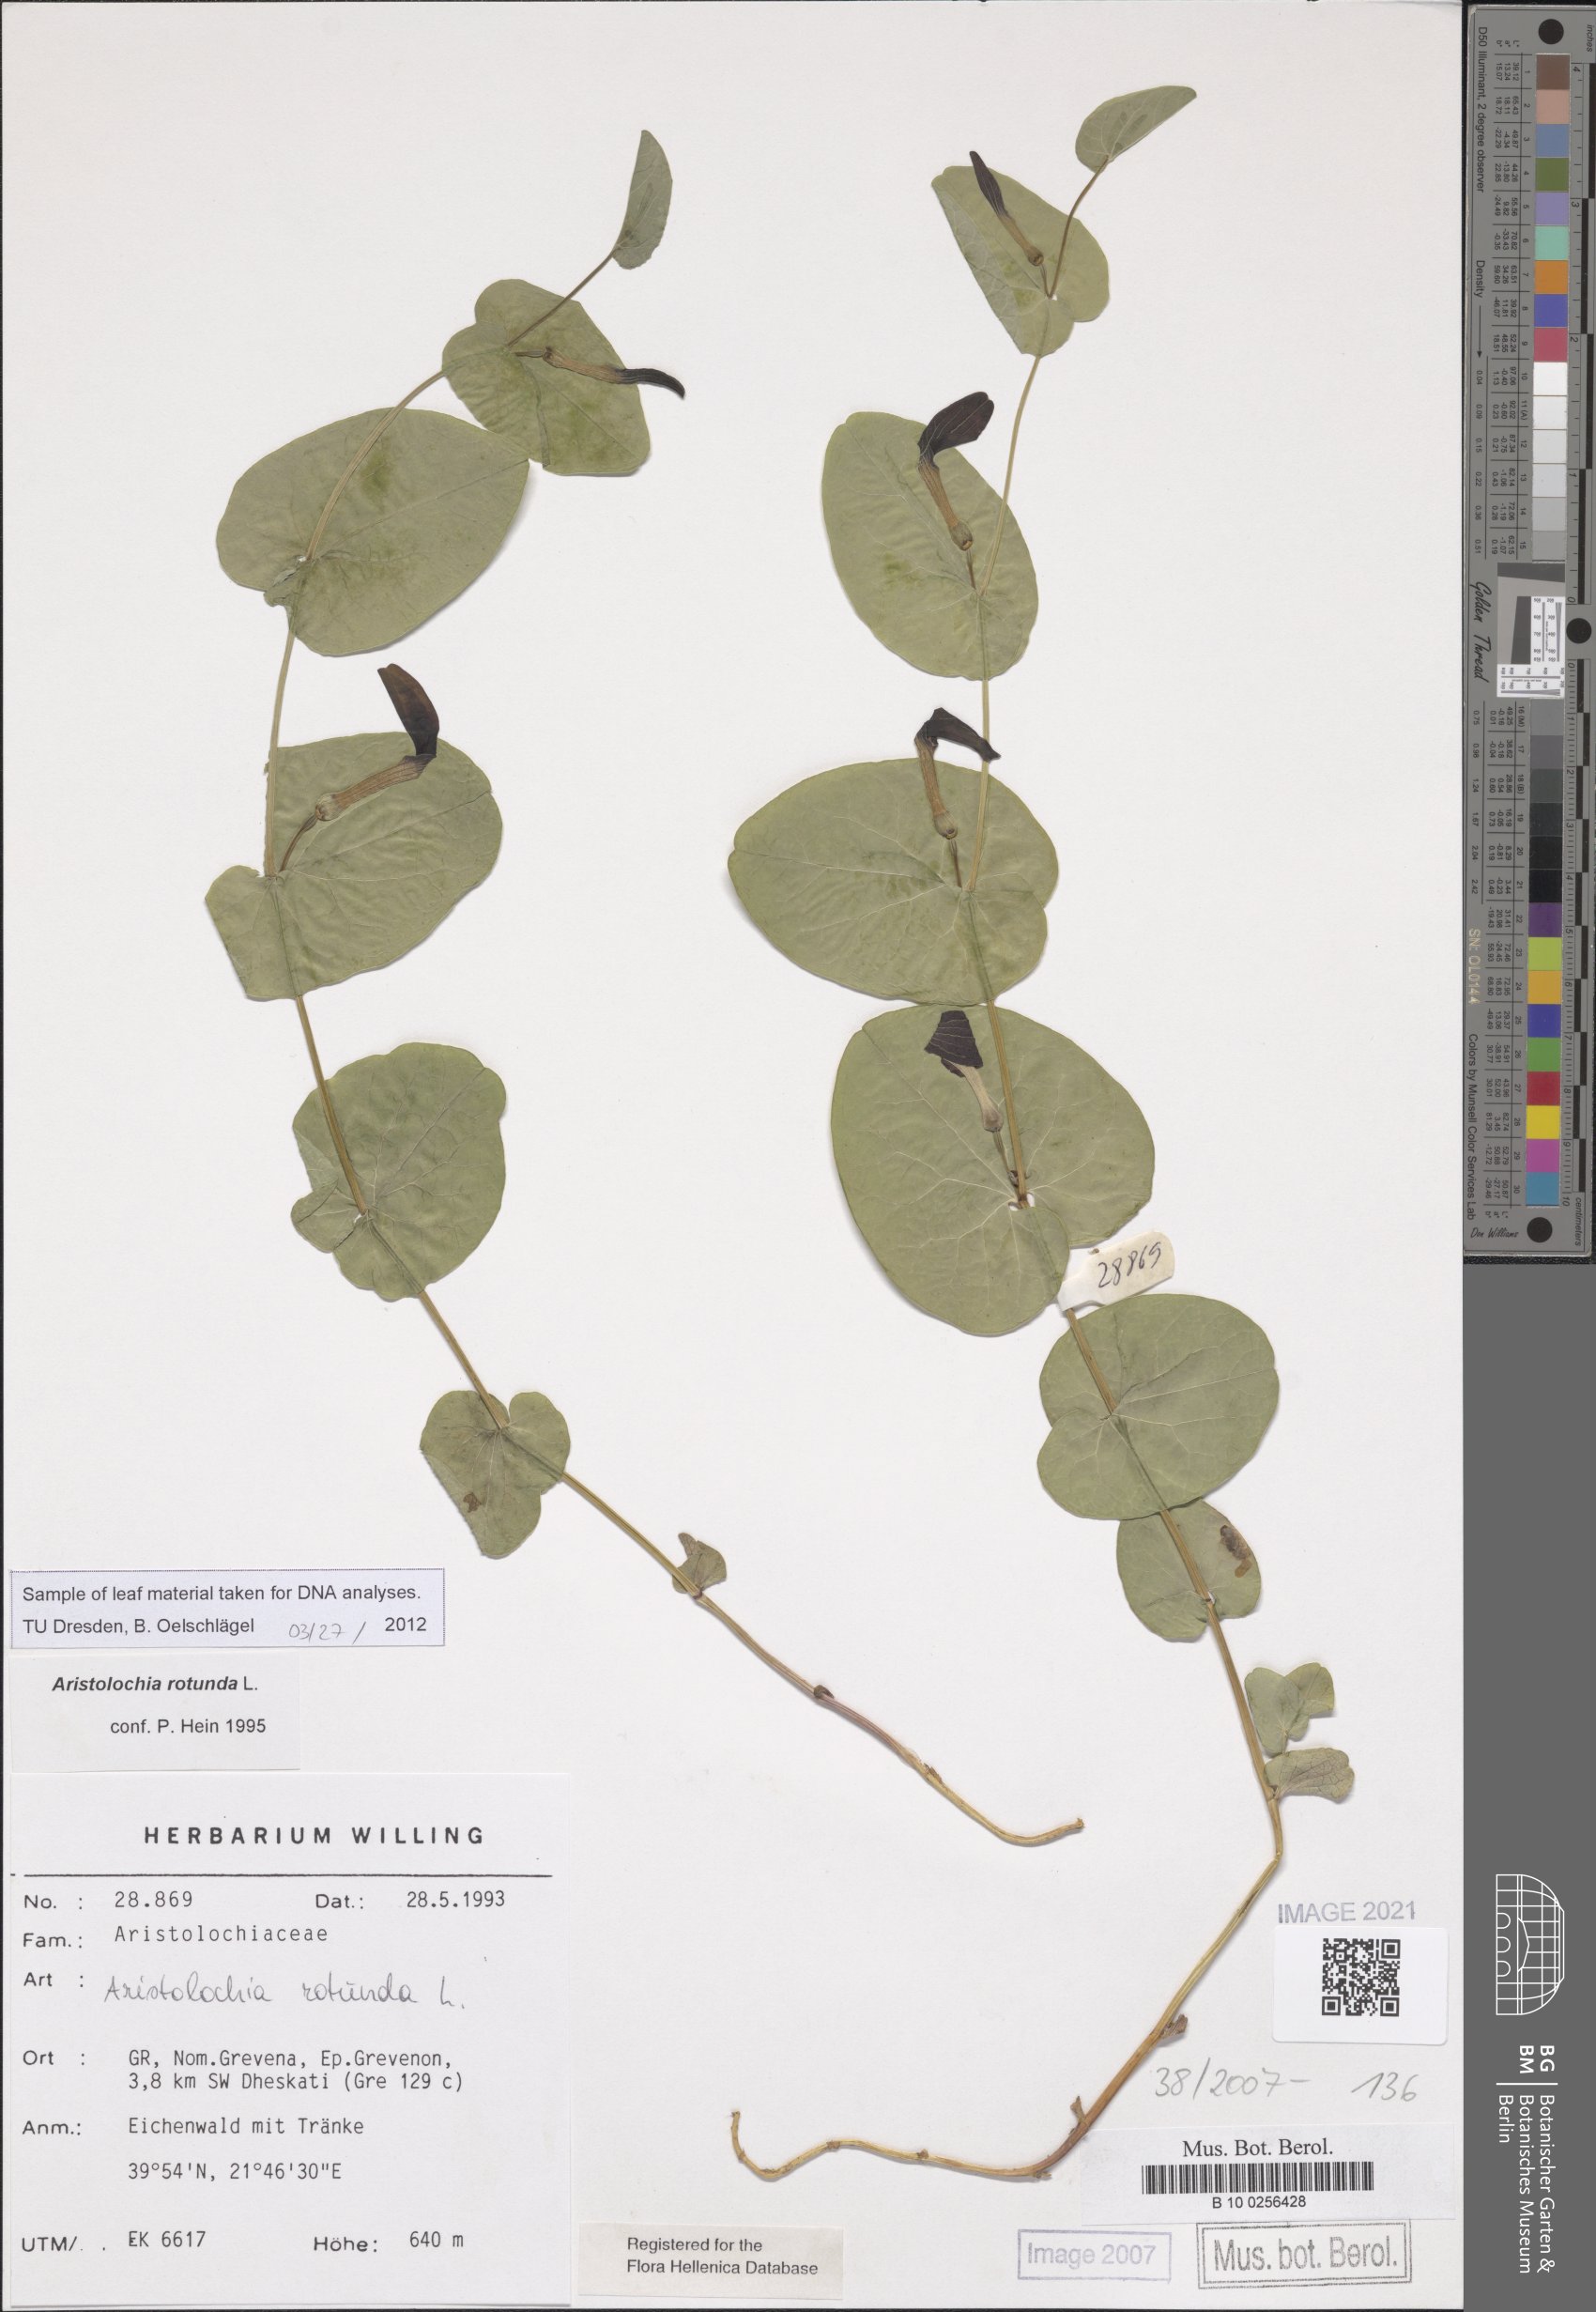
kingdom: Plantae
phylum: Tracheophyta
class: Magnoliopsida
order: Piperales
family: Aristolochiaceae
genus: Aristolochia
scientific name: Aristolochia rotunda
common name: Smearwort
